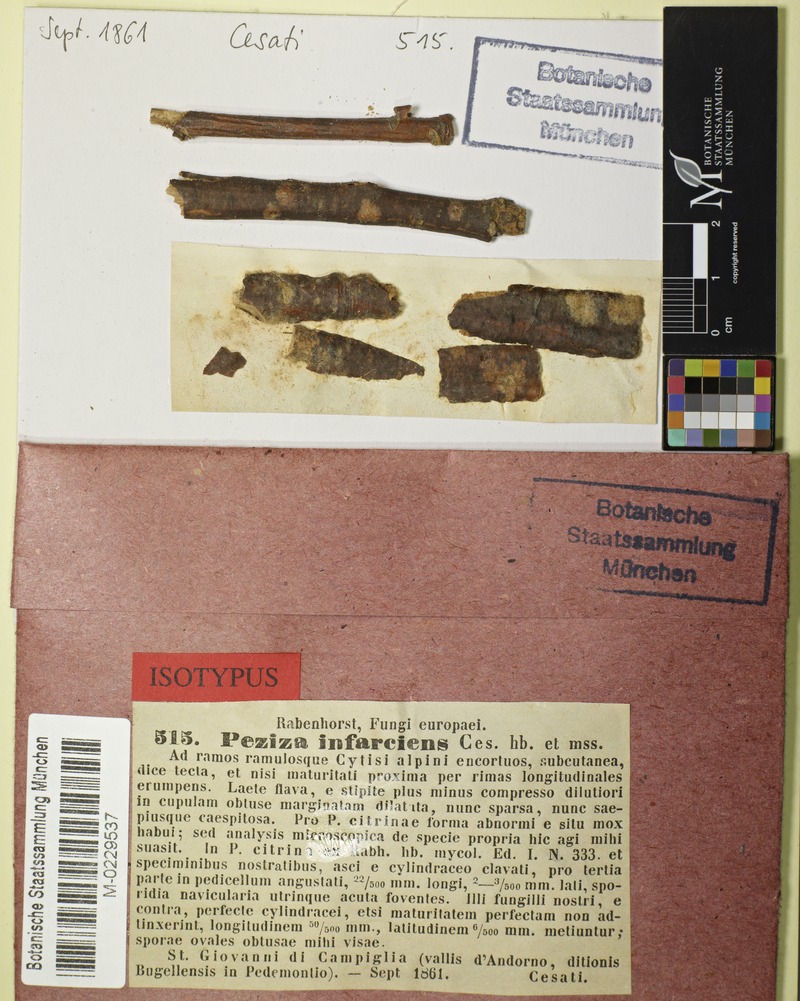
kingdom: Fungi
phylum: Ascomycota
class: Leotiomycetes
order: Helotiales
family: Helotiaceae
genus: Hymenoscyphus
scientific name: Hymenoscyphus infarciens
